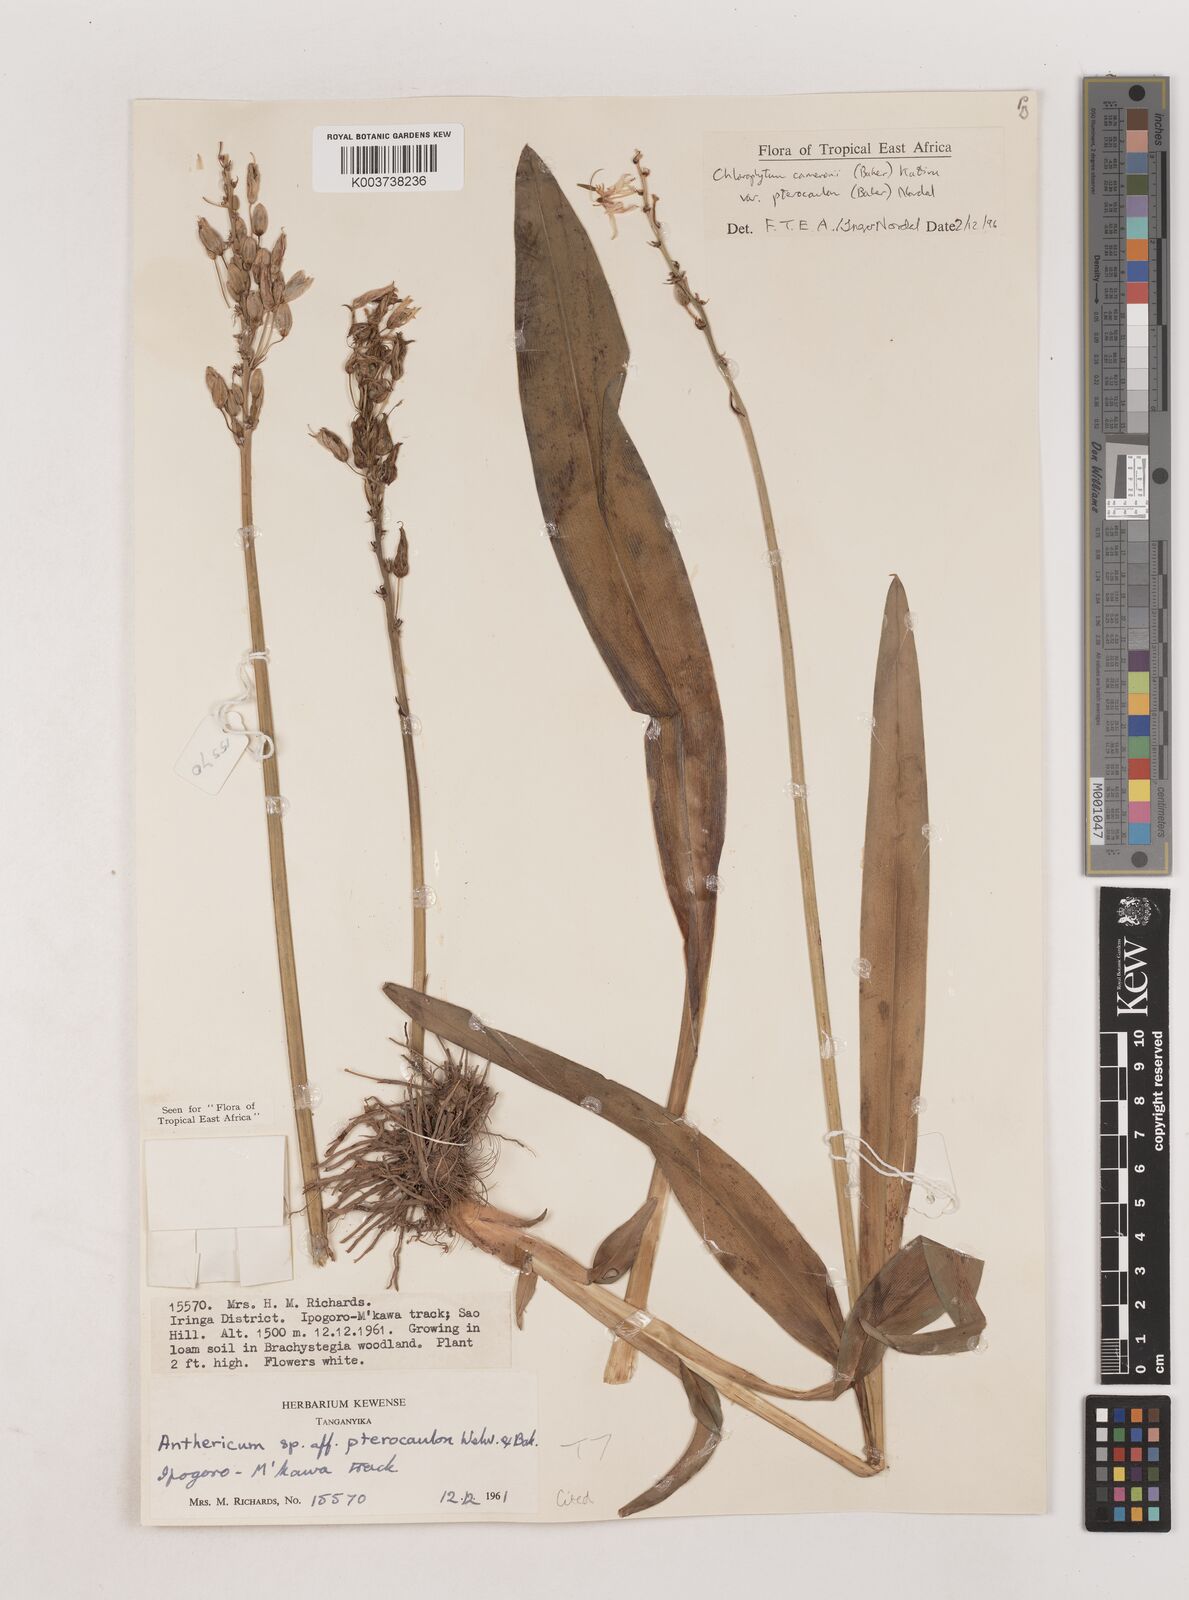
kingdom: Plantae
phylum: Tracheophyta
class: Liliopsida
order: Asparagales
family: Asparagaceae
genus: Chlorophytum
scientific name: Chlorophytum cameronii
